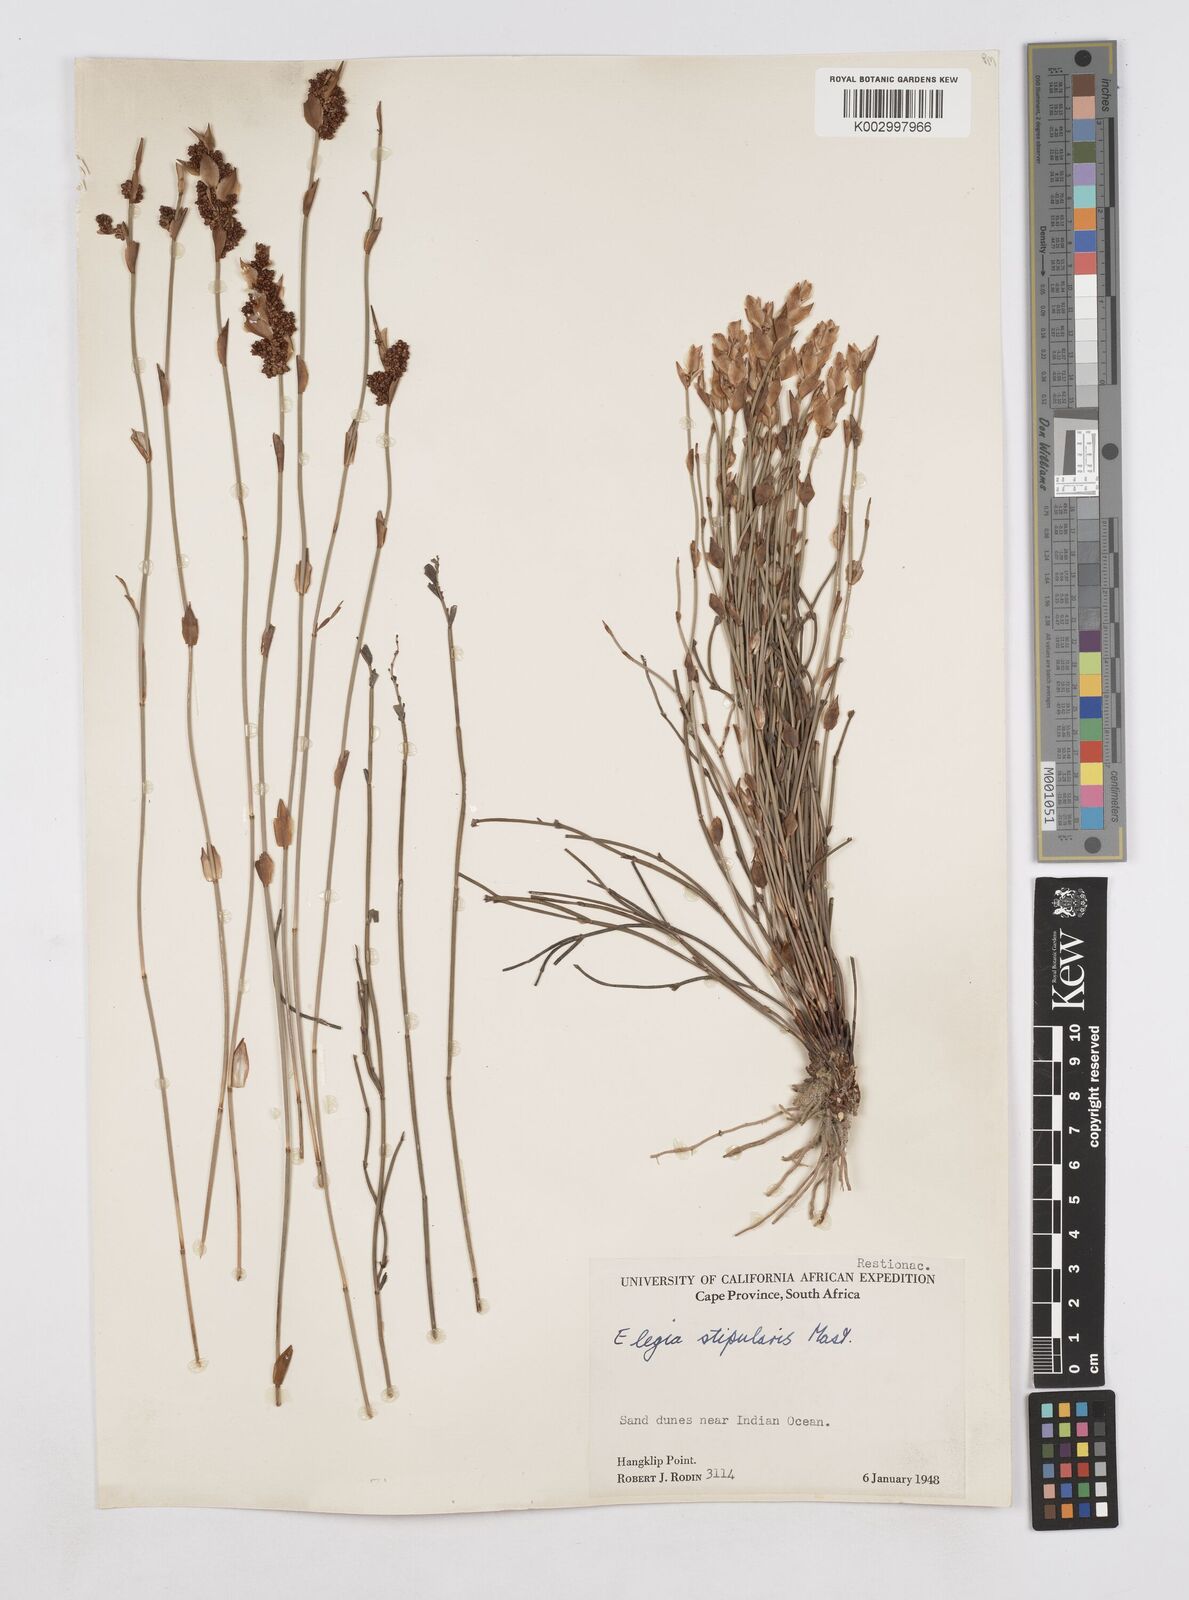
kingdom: Plantae
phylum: Tracheophyta
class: Liliopsida
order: Poales
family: Restionaceae
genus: Elegia
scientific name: Elegia stipularis
